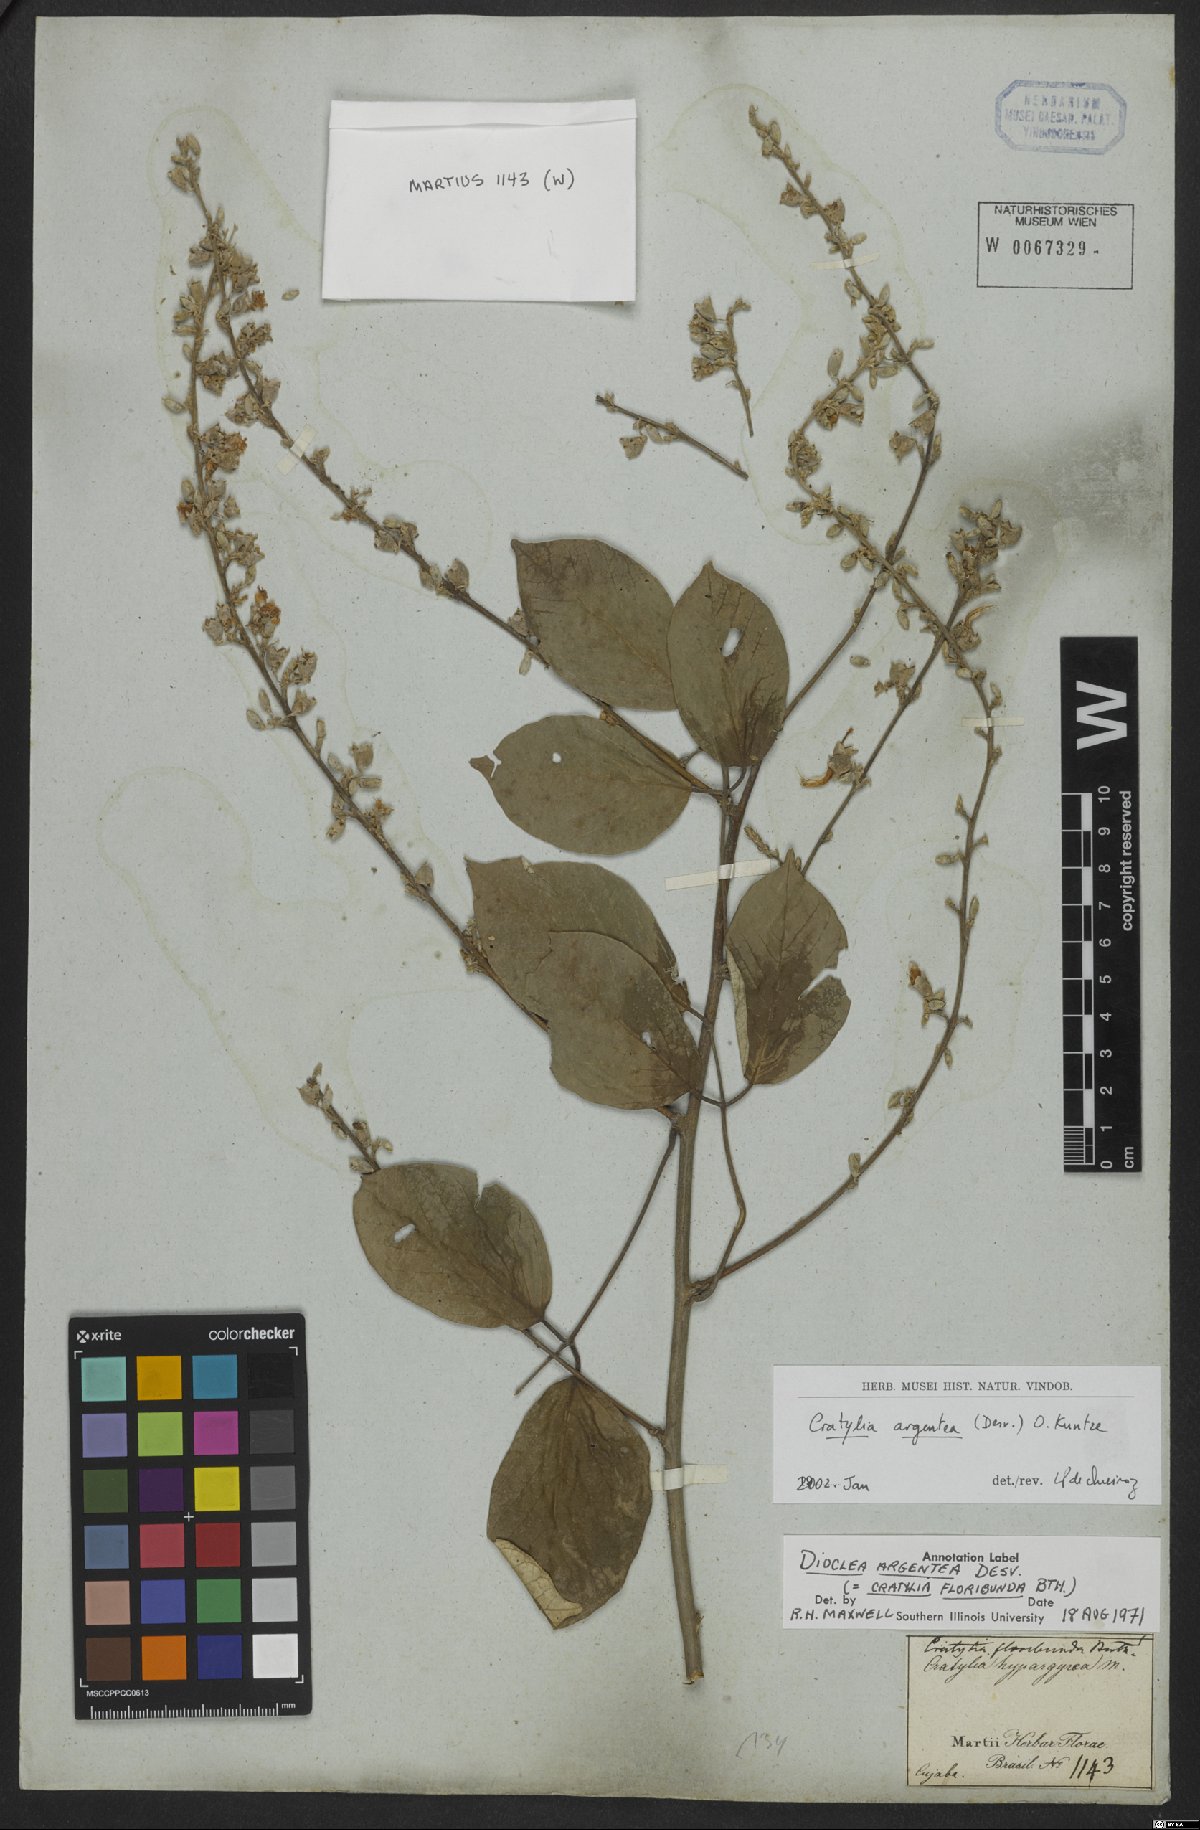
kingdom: Plantae
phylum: Tracheophyta
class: Magnoliopsida
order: Fabales
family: Fabaceae
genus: Cratylia
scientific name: Cratylia argentea
